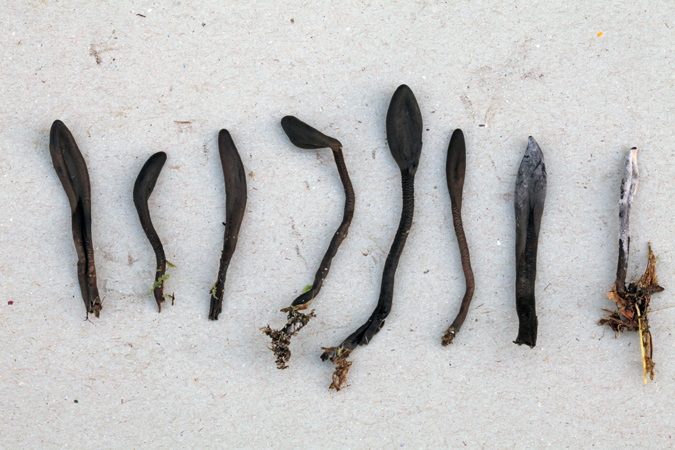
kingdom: Fungi
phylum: Ascomycota
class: Geoglossomycetes
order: Geoglossales
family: Geoglossaceae
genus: Hemileucoglossum
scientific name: Hemileucoglossum elongatum
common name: småsporet jordtunge
